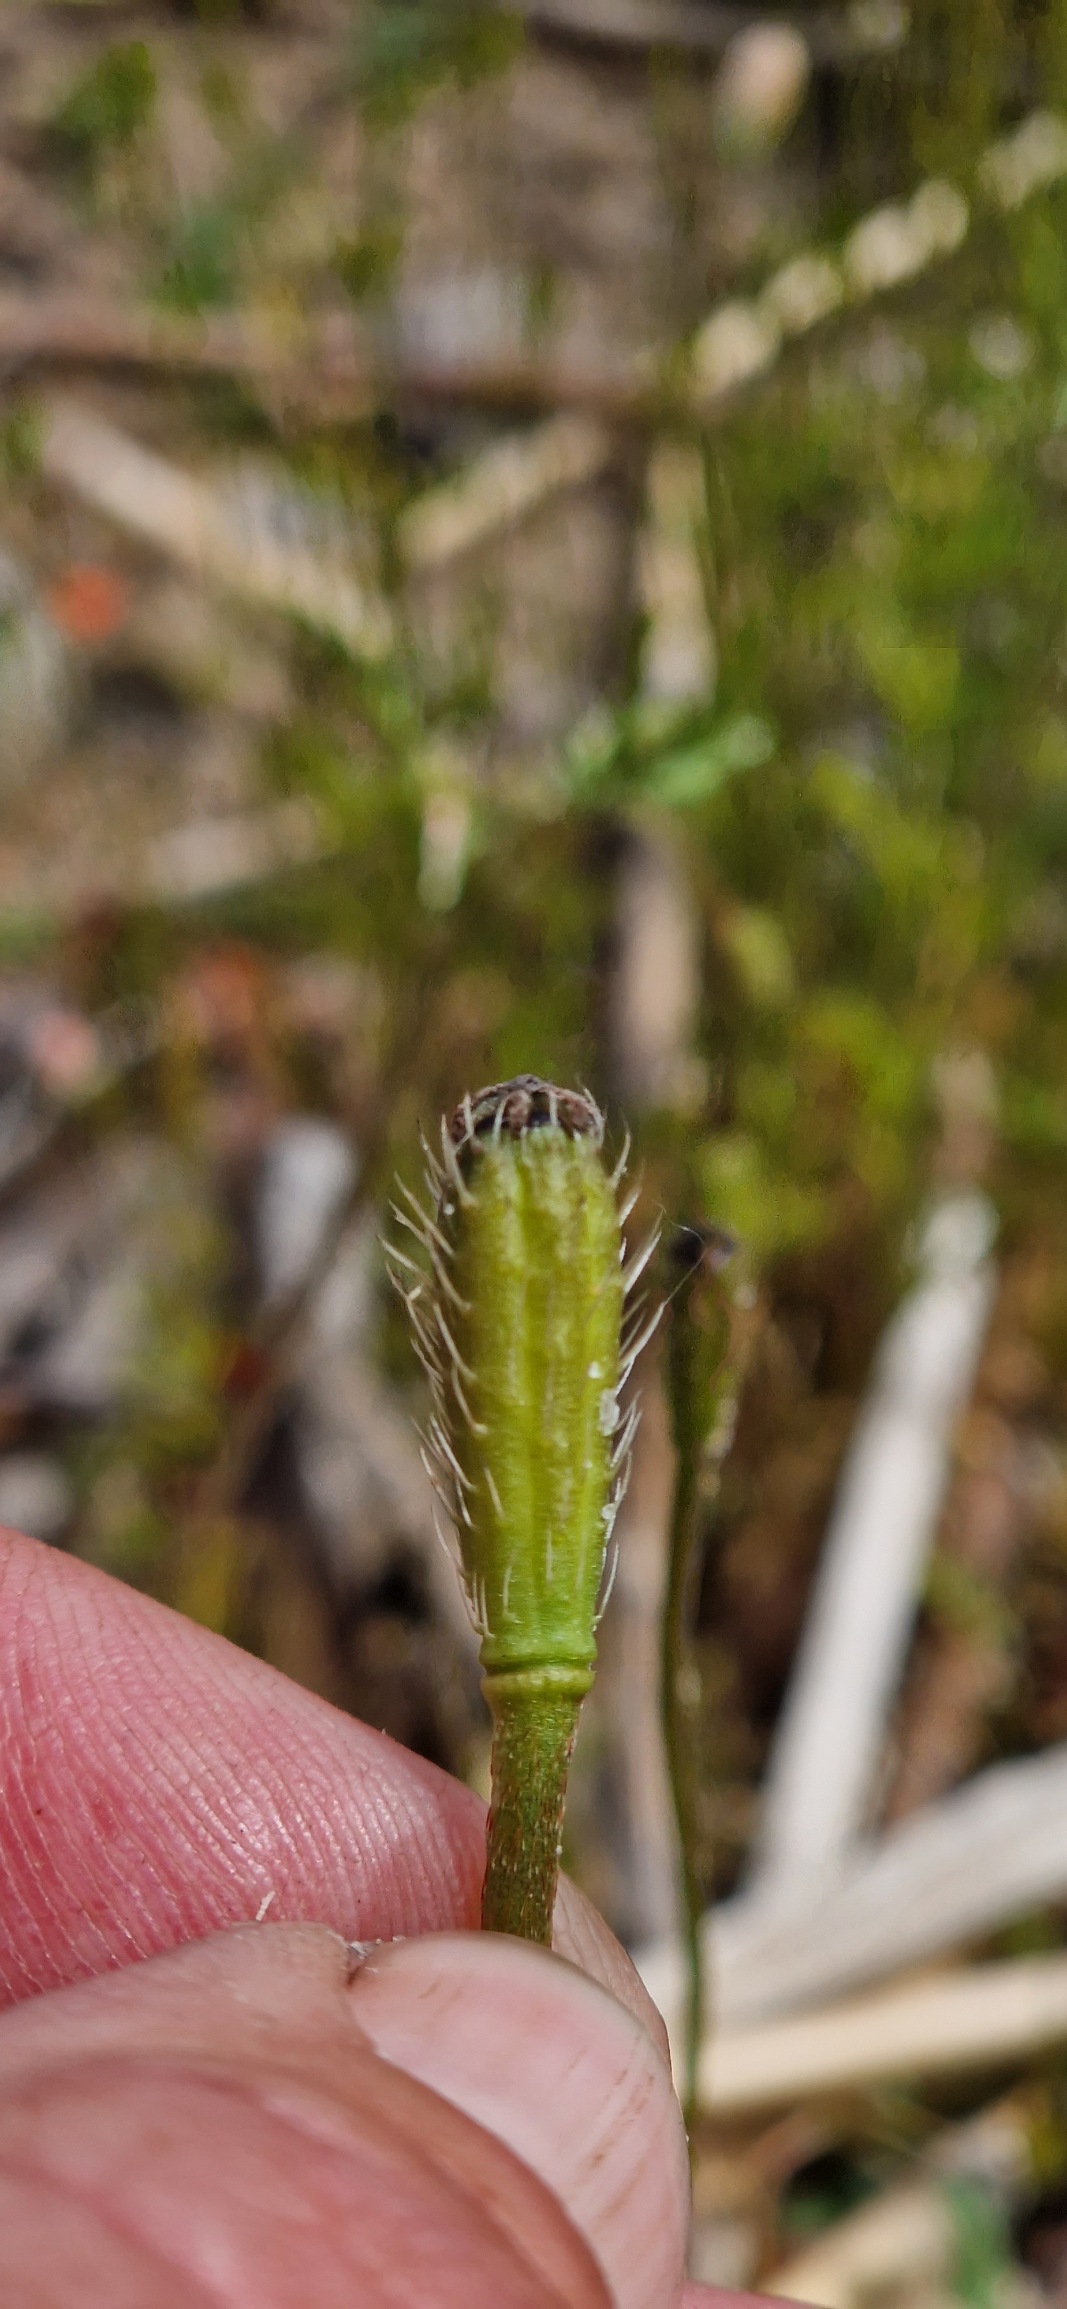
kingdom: Plantae
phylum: Tracheophyta
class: Magnoliopsida
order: Ranunculales
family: Papaveraceae
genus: Roemeria
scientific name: Roemeria argemone
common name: Kølle-valmue
